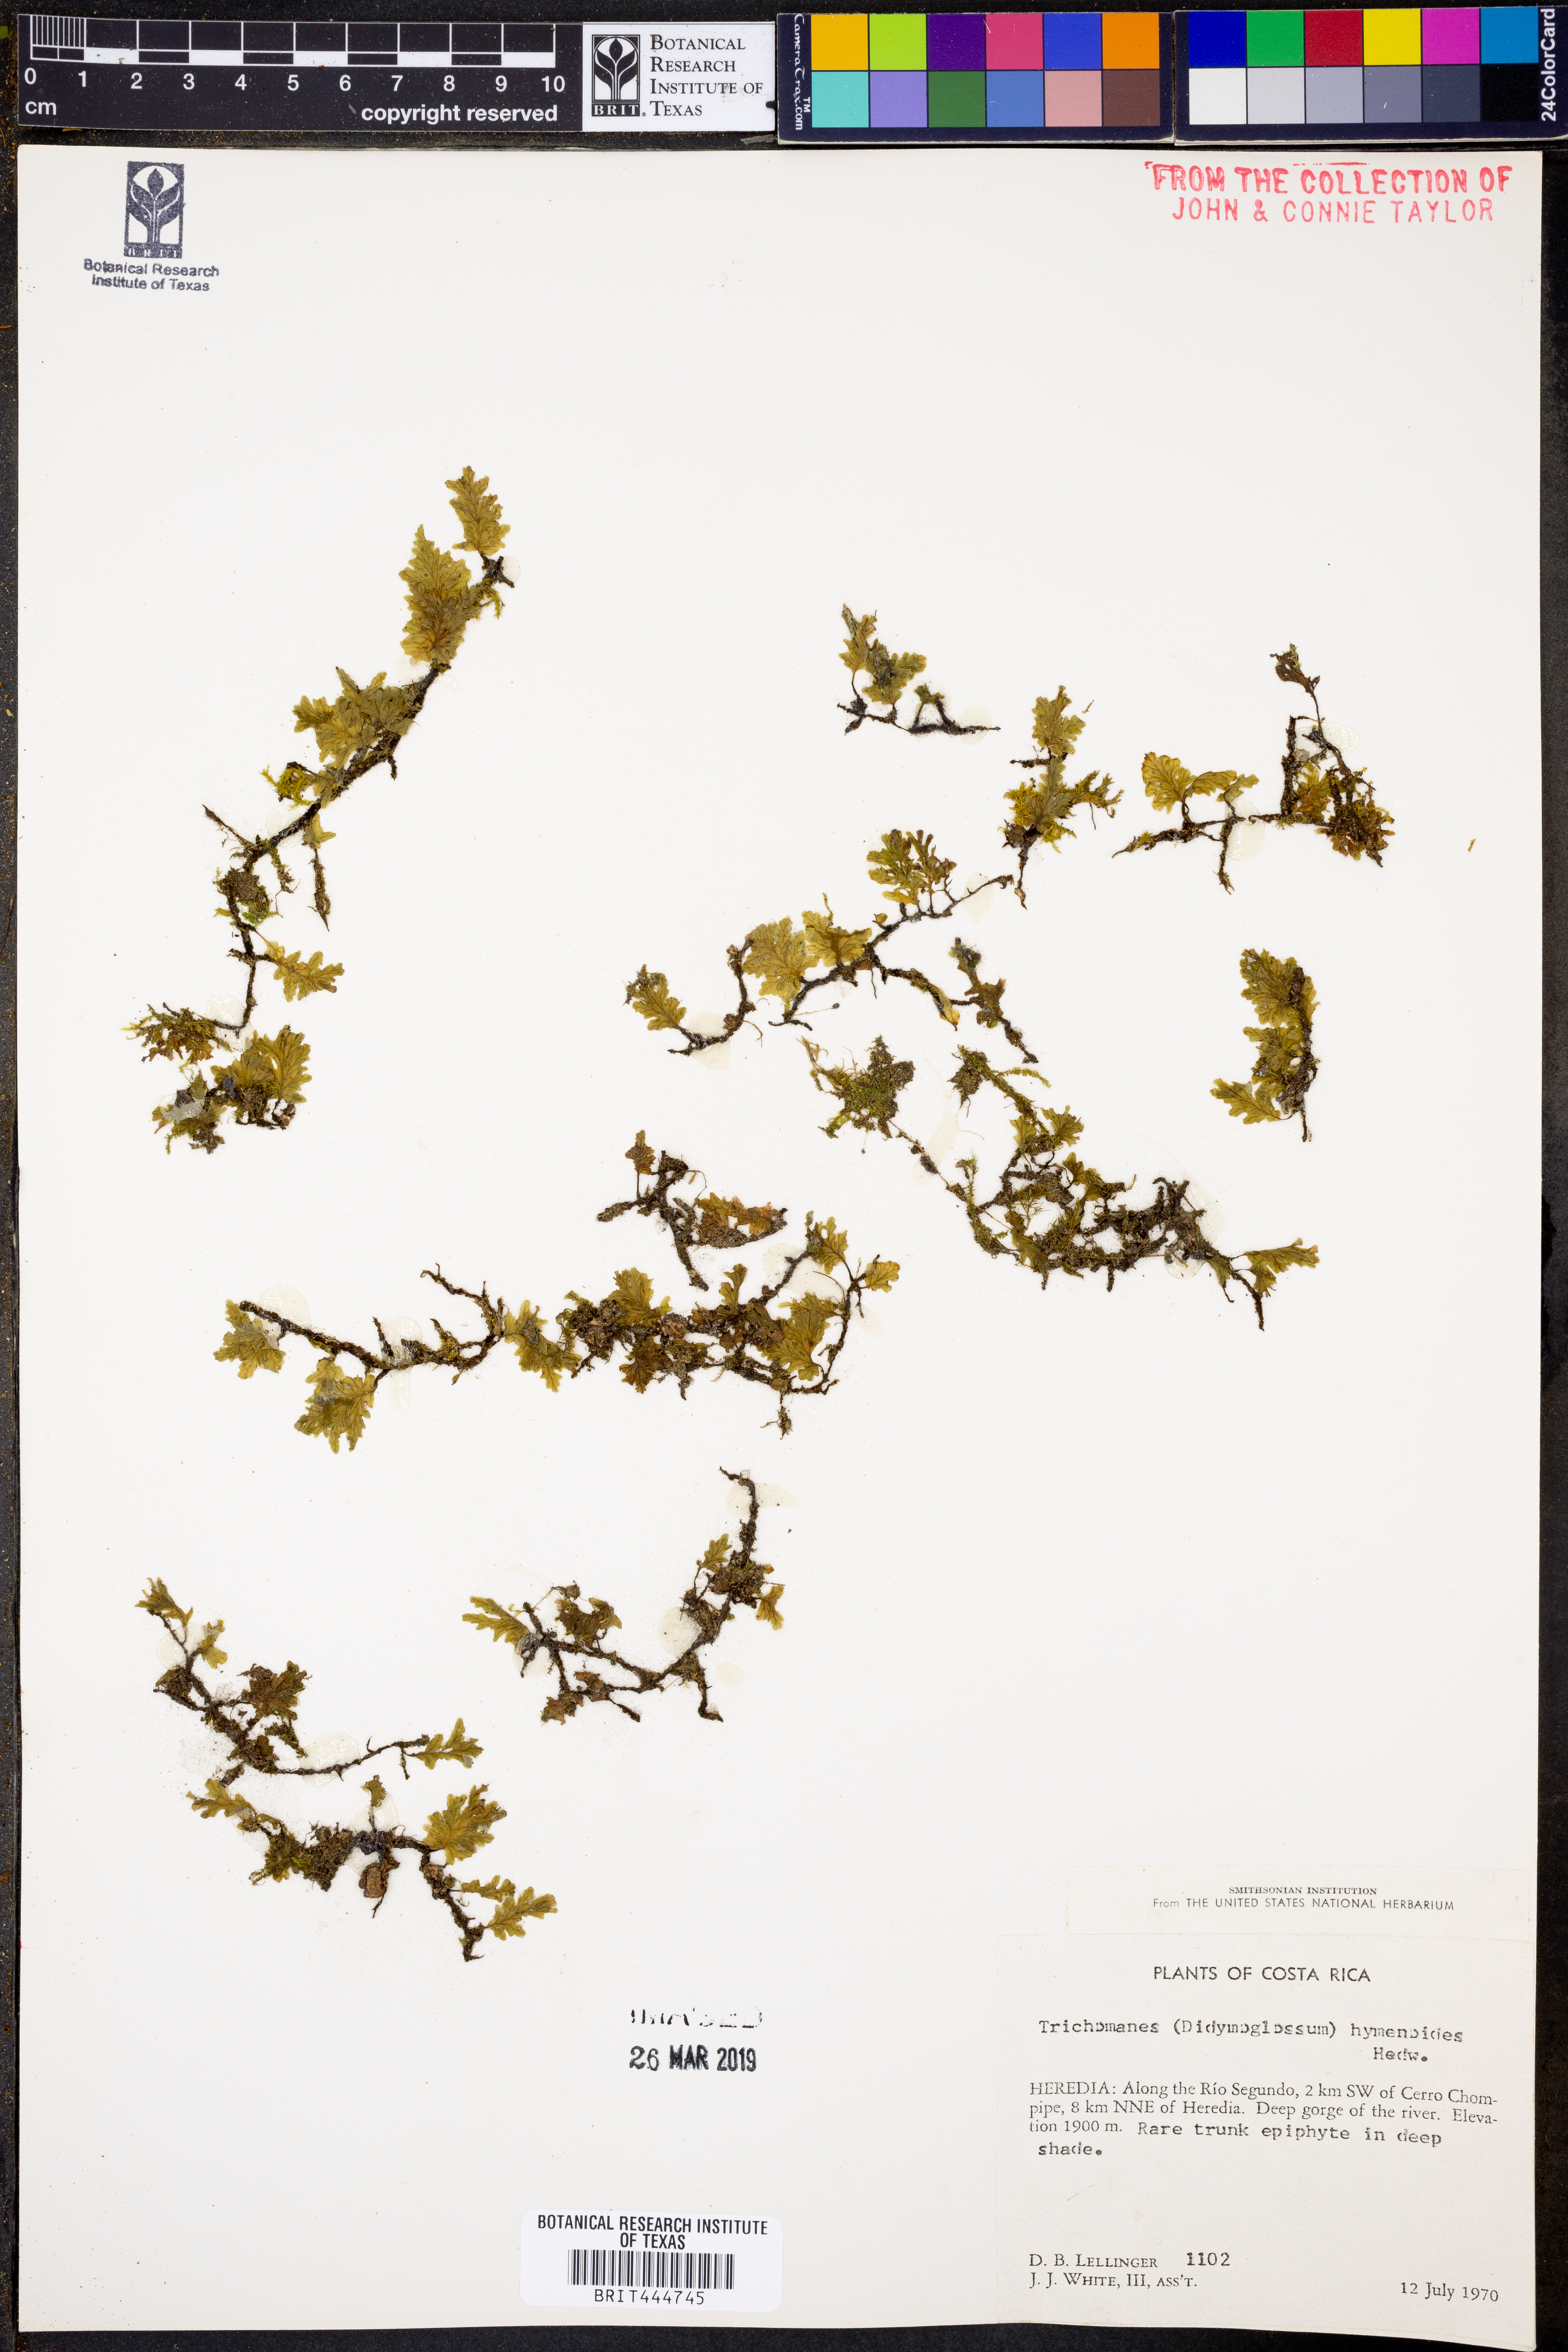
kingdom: Plantae
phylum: Tracheophyta
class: Polypodiopsida
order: Hymenophyllales
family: Hymenophyllaceae
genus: Didymoglossum
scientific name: Didymoglossum hymenoides
